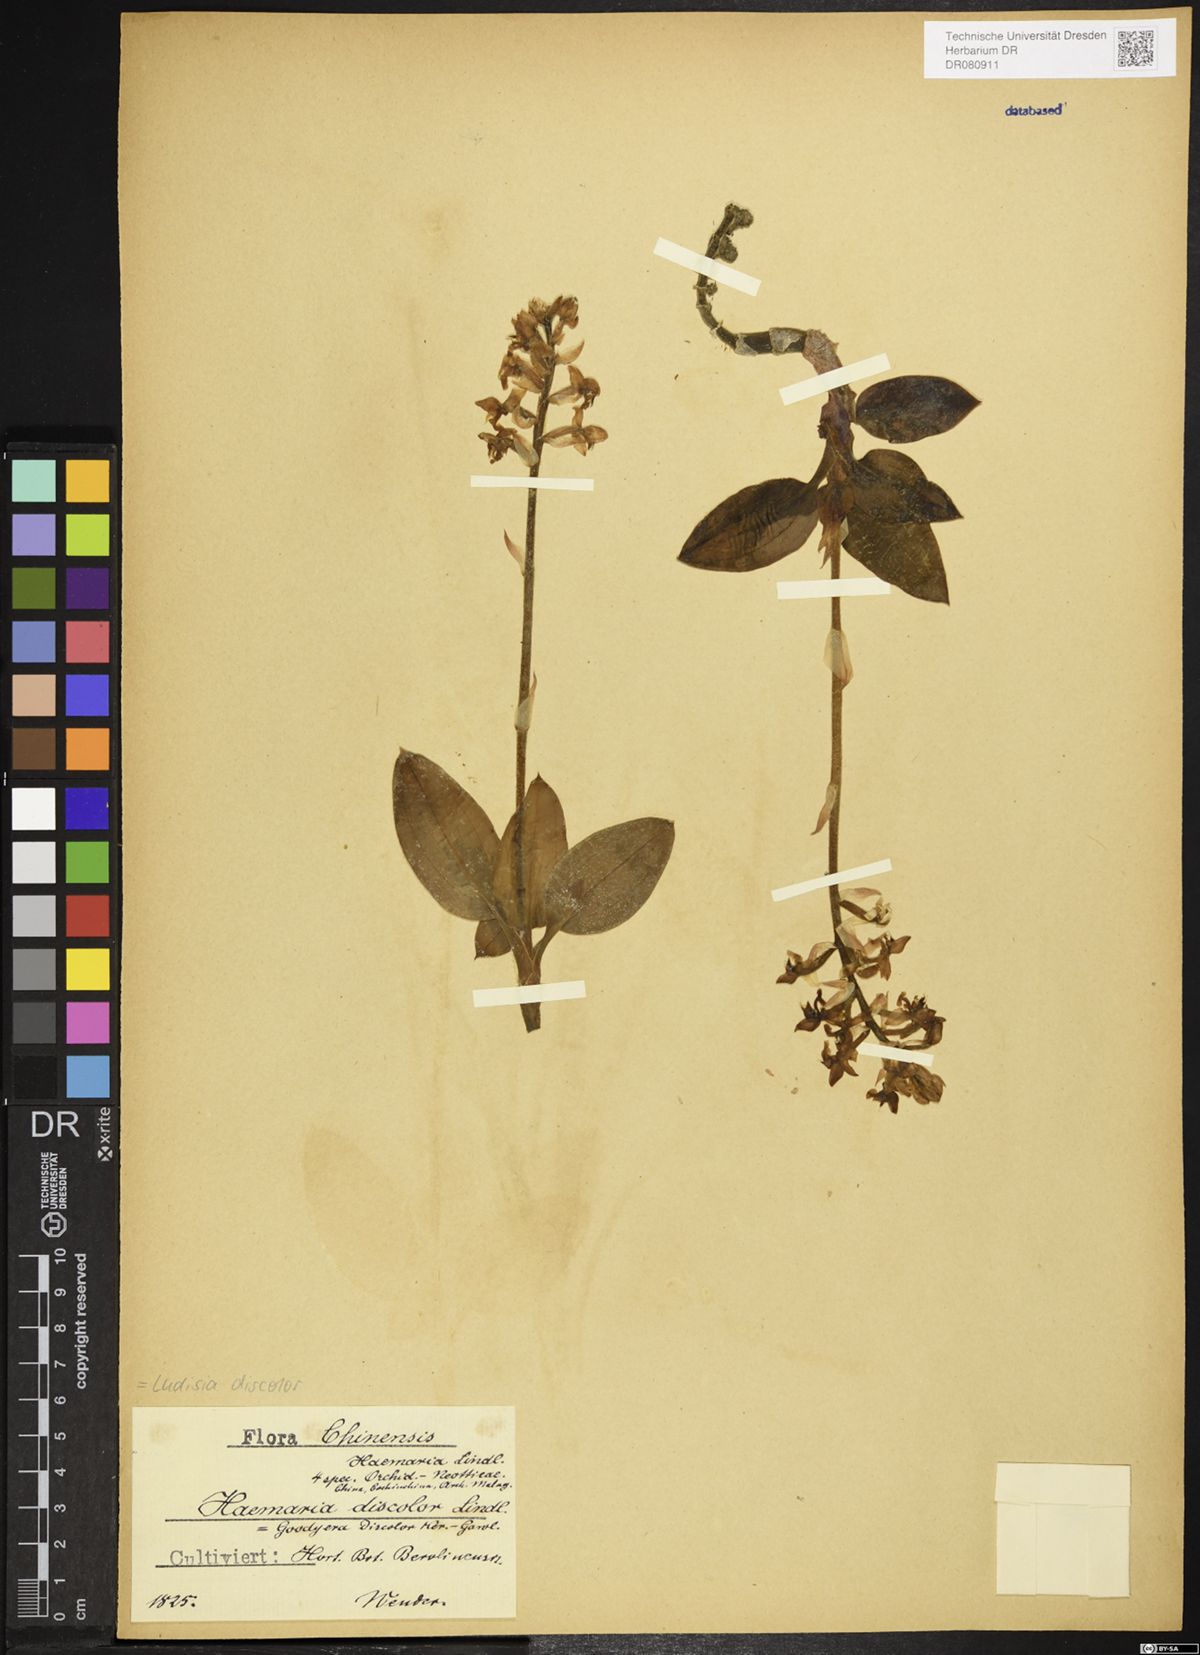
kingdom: Plantae
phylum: Tracheophyta
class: Liliopsida
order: Asparagales
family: Orchidaceae
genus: Ludisia
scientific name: Ludisia discolor
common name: Jewel orchid
